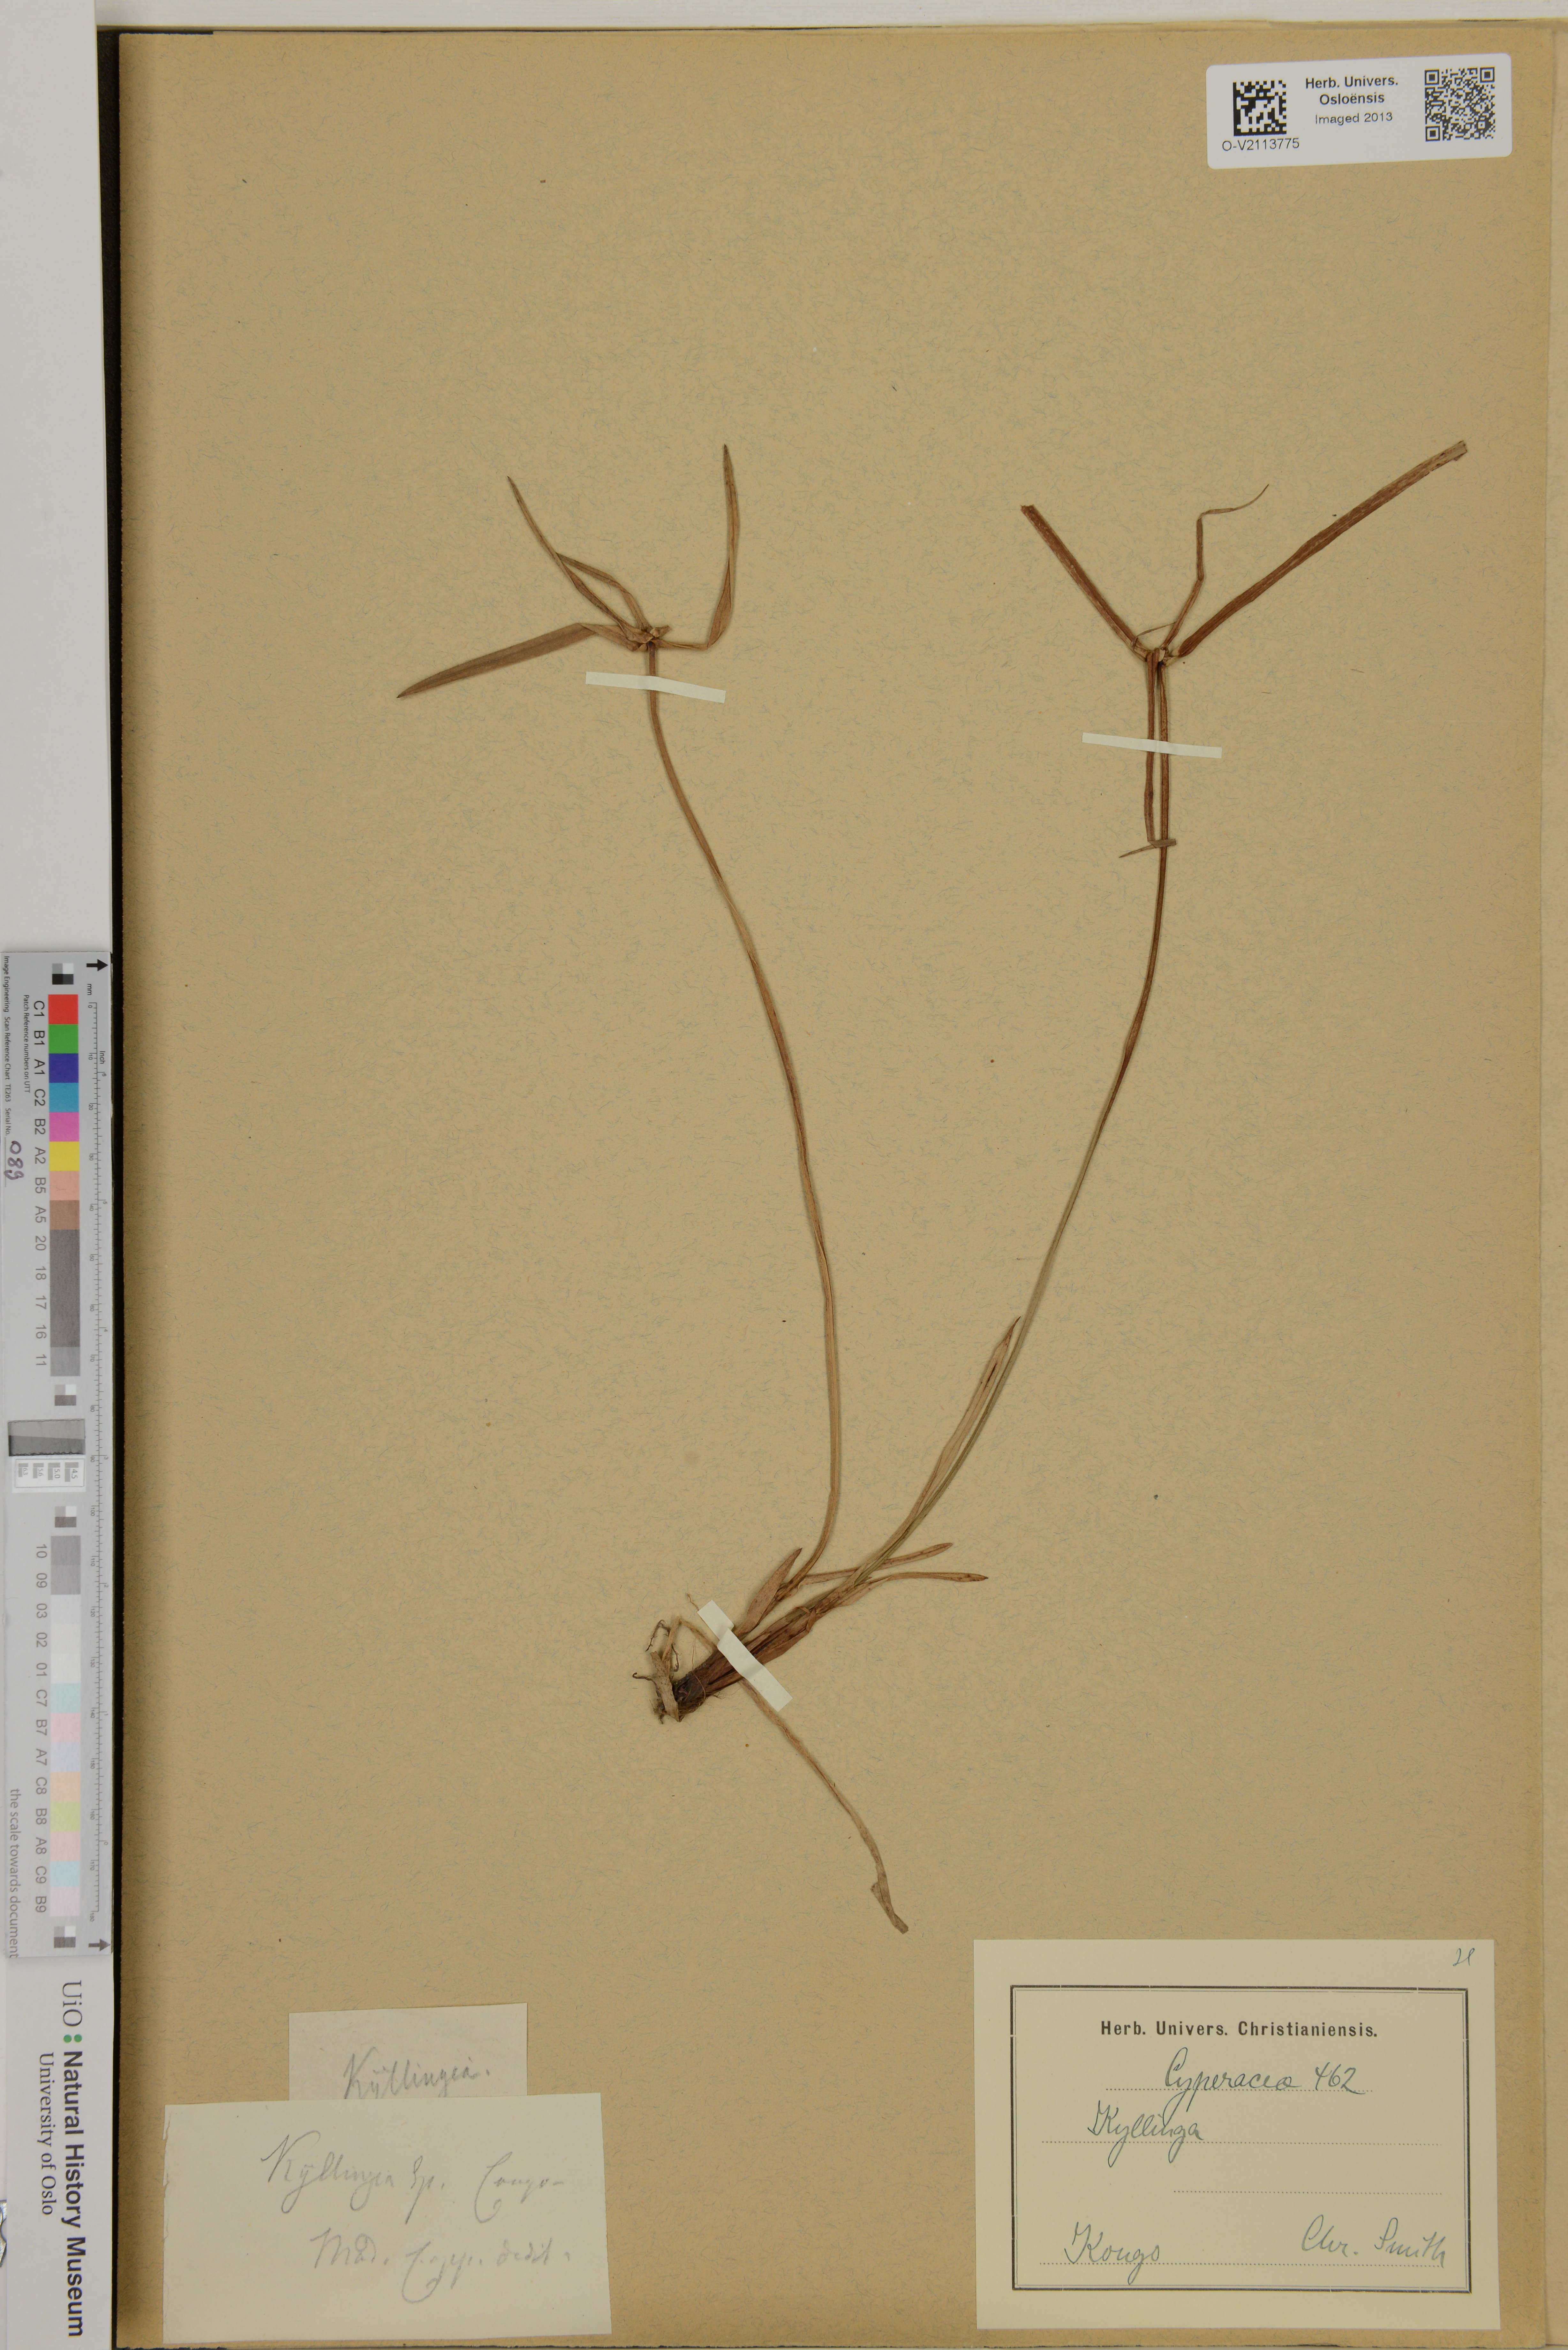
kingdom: Plantae
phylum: Tracheophyta
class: Liliopsida
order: Poales
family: Cyperaceae
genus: Cyperus
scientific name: Cyperus
